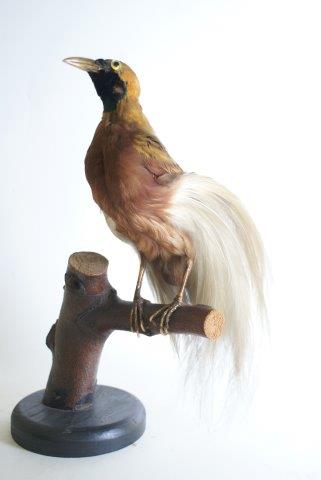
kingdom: Animalia
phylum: Chordata
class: Aves
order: Passeriformes
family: Paradisaeidae
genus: Paradisaea
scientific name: Paradisaea minor
